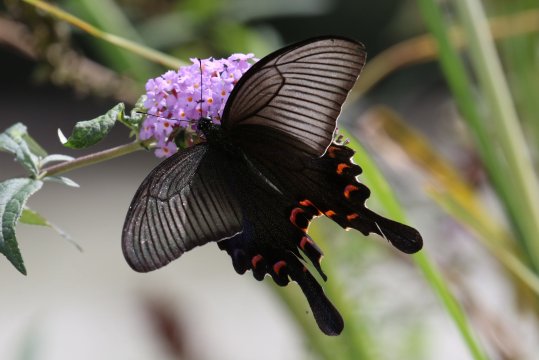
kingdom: Animalia
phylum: Arthropoda
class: Insecta
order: Lepidoptera
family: Papilionidae
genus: Papilio
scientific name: Papilio bianor
